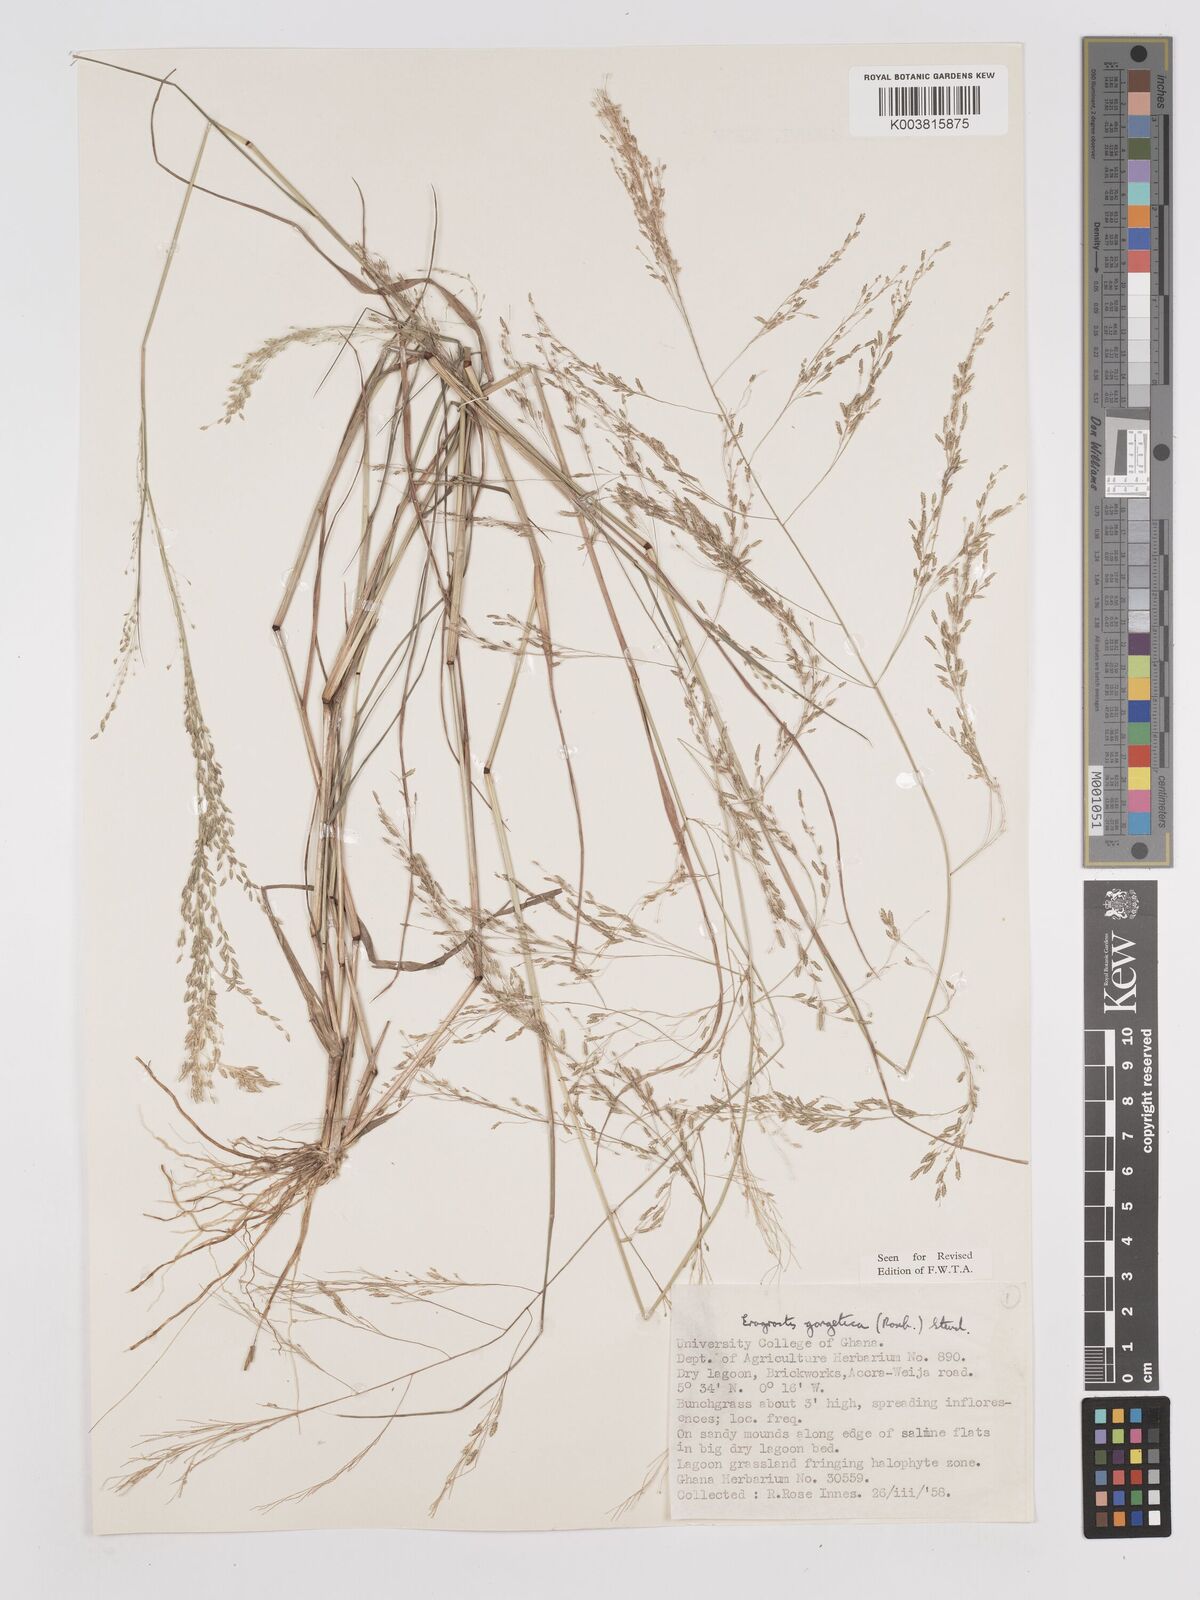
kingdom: Plantae
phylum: Tracheophyta
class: Liliopsida
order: Poales
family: Poaceae
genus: Eragrostis
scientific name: Eragrostis gangetica
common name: Slimflower lovegrass
